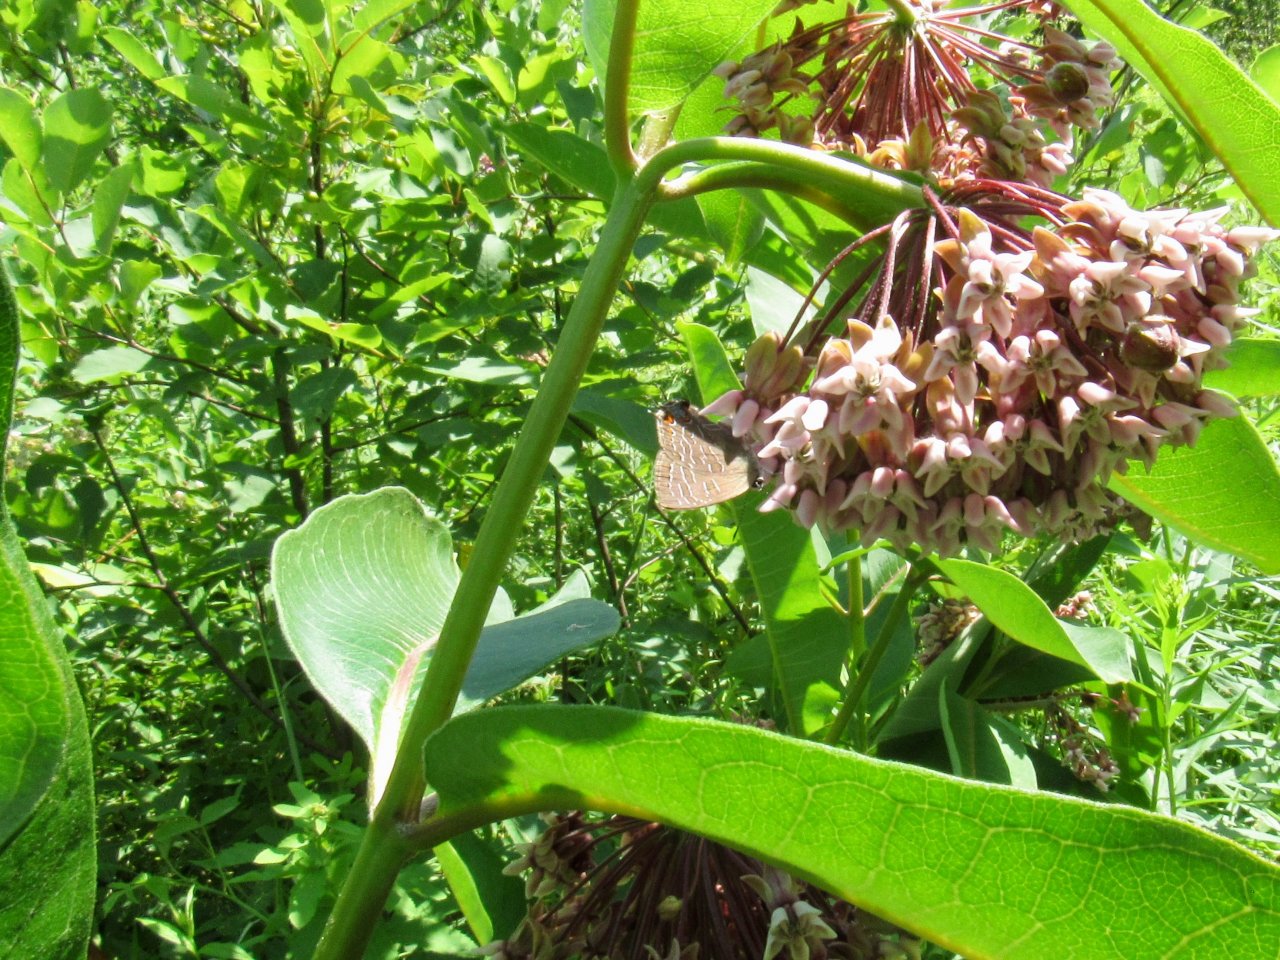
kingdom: Animalia
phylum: Arthropoda
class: Insecta
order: Lepidoptera
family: Lycaenidae
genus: Satyrium
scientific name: Satyrium liparops
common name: Striped Hairstreak
